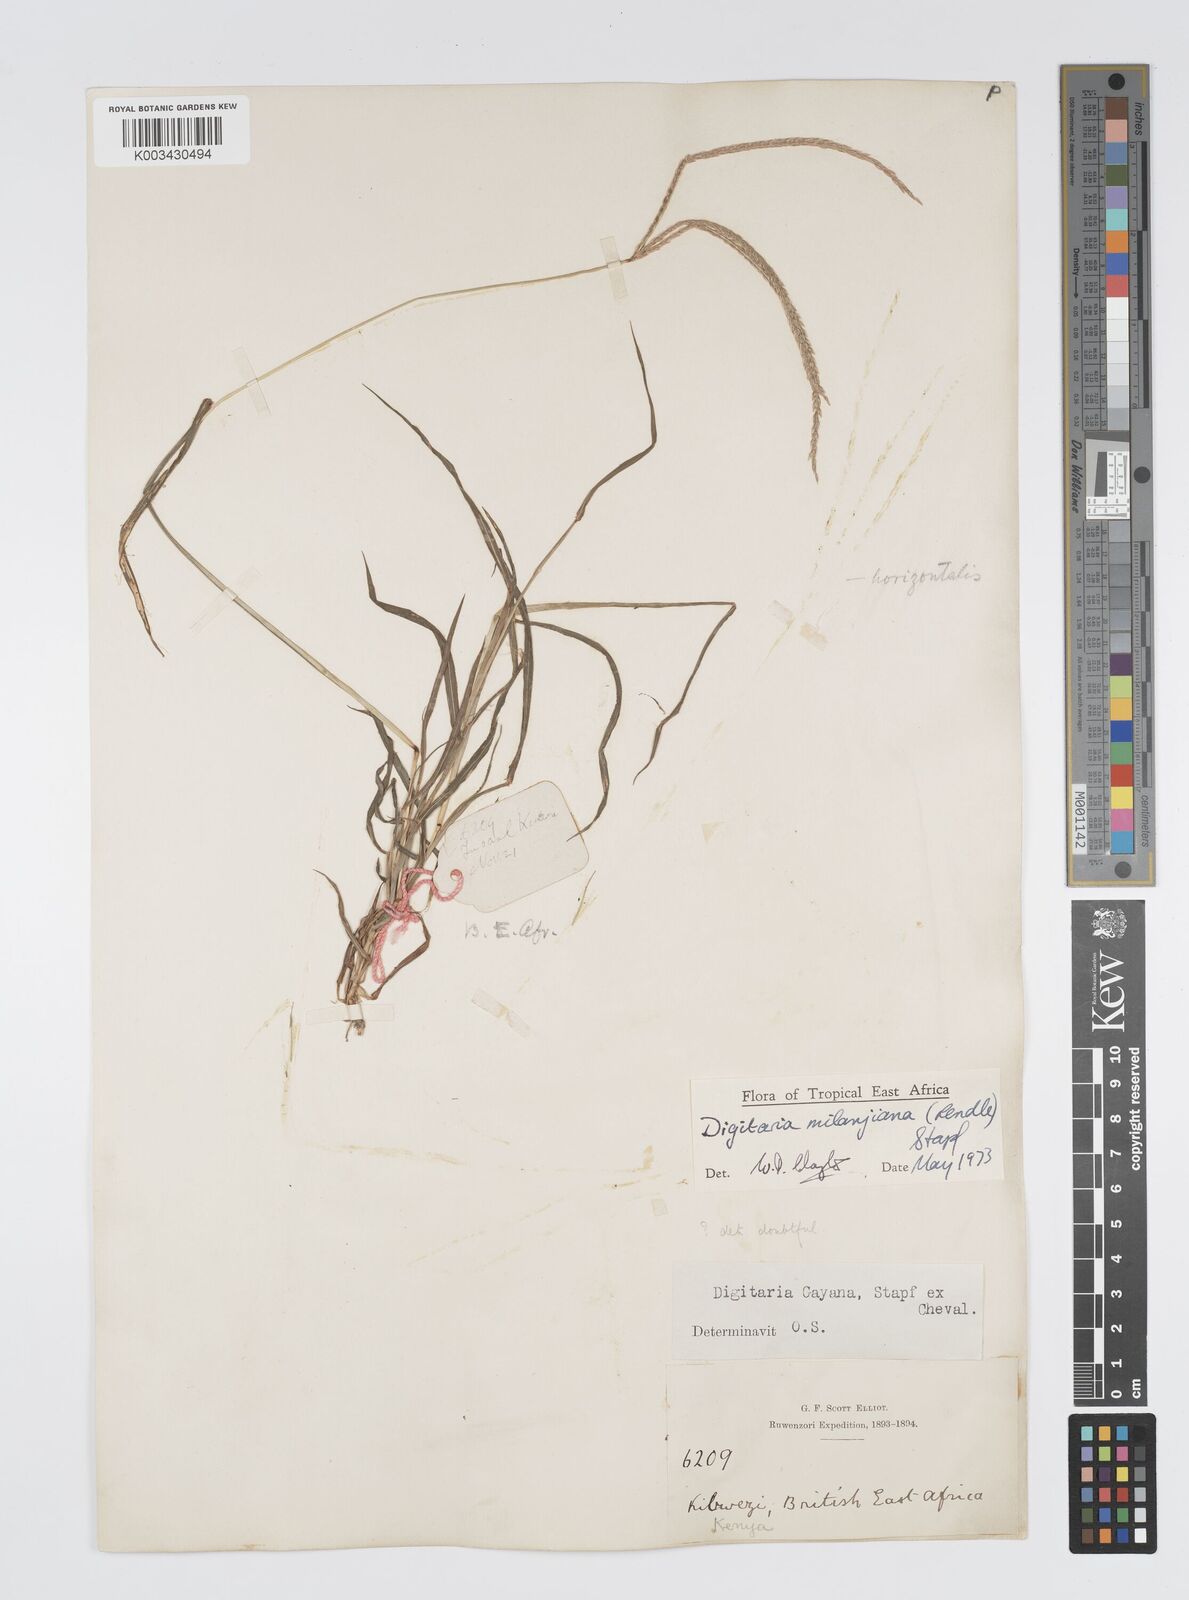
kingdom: Plantae
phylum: Tracheophyta
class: Liliopsida
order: Poales
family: Poaceae
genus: Digitaria
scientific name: Digitaria milanjiana
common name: Madagascar crabgrass
